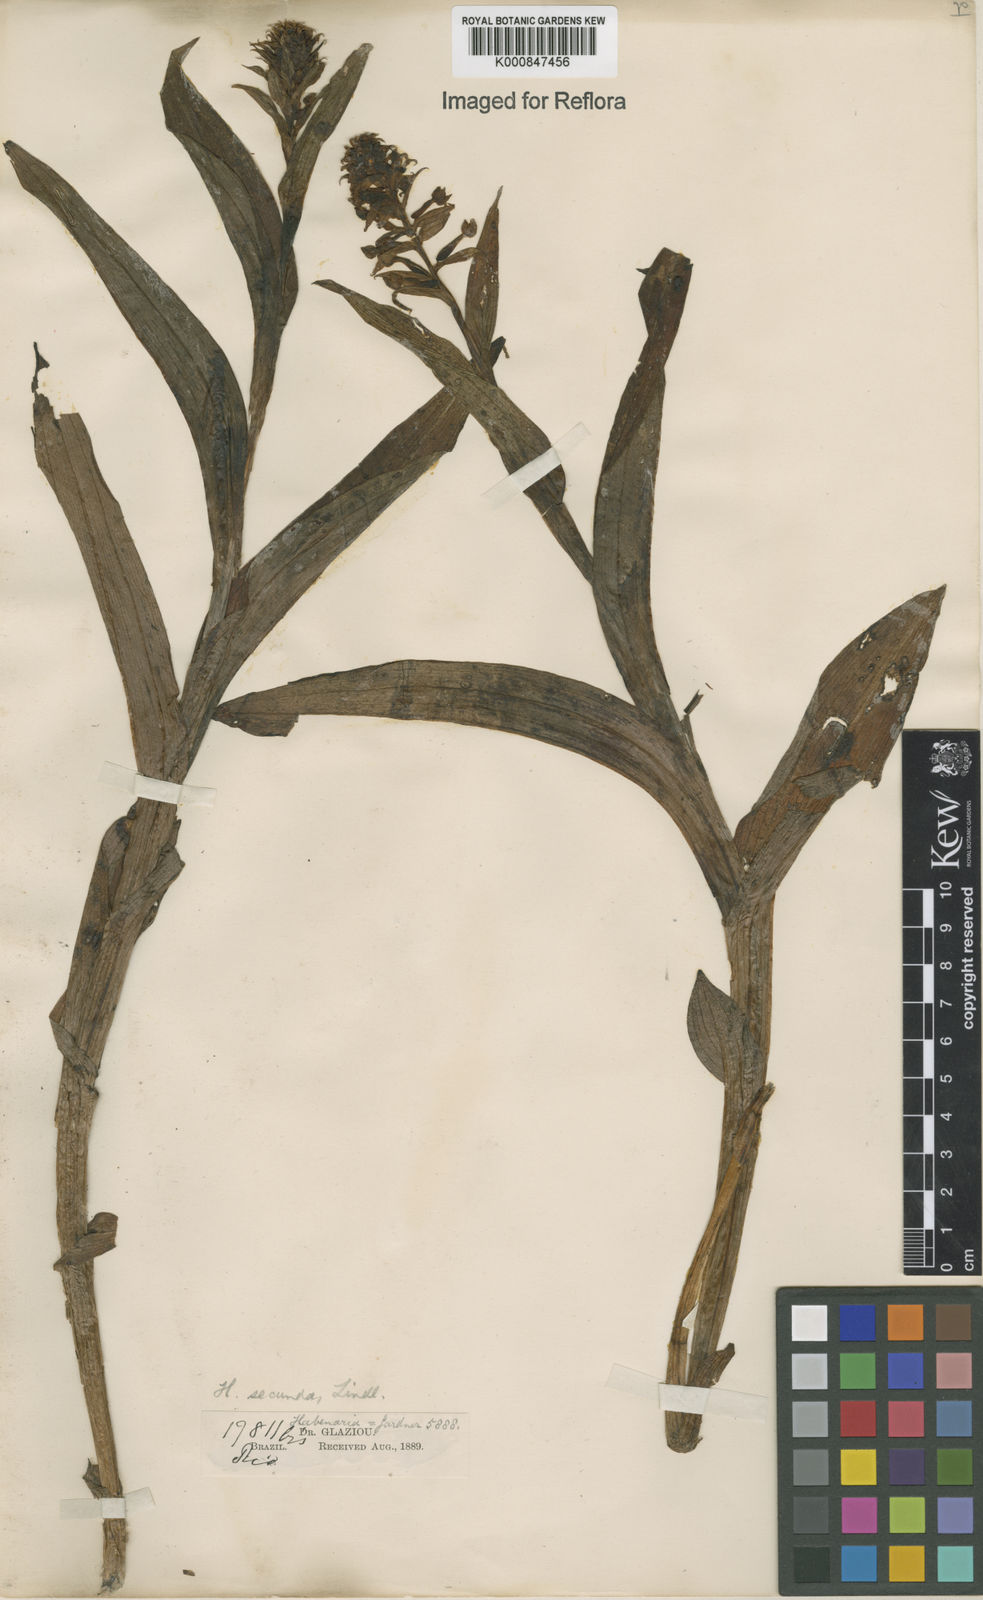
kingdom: Plantae
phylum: Tracheophyta
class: Liliopsida
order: Asparagales
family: Orchidaceae
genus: Habenaria
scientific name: Habenaria secunda
